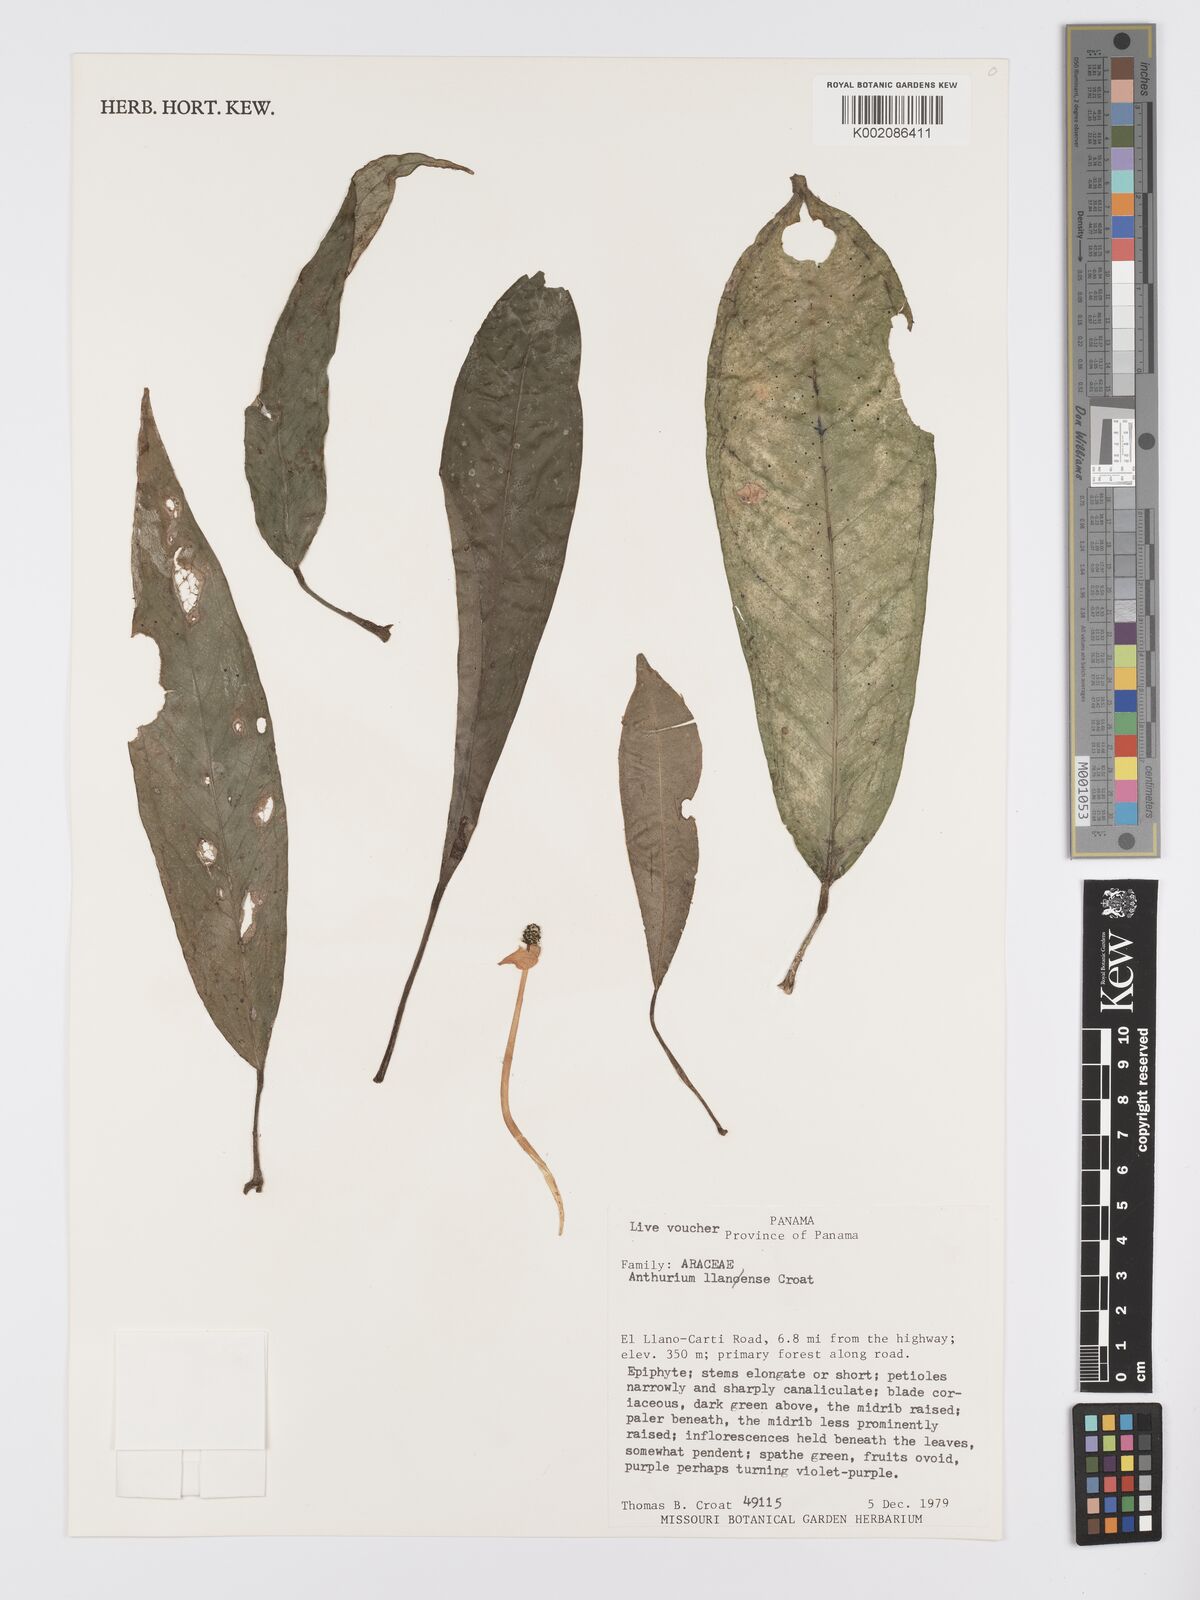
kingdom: Plantae
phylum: Tracheophyta
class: Liliopsida
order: Alismatales
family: Araceae
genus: Anthurium
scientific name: Anthurium llanense
